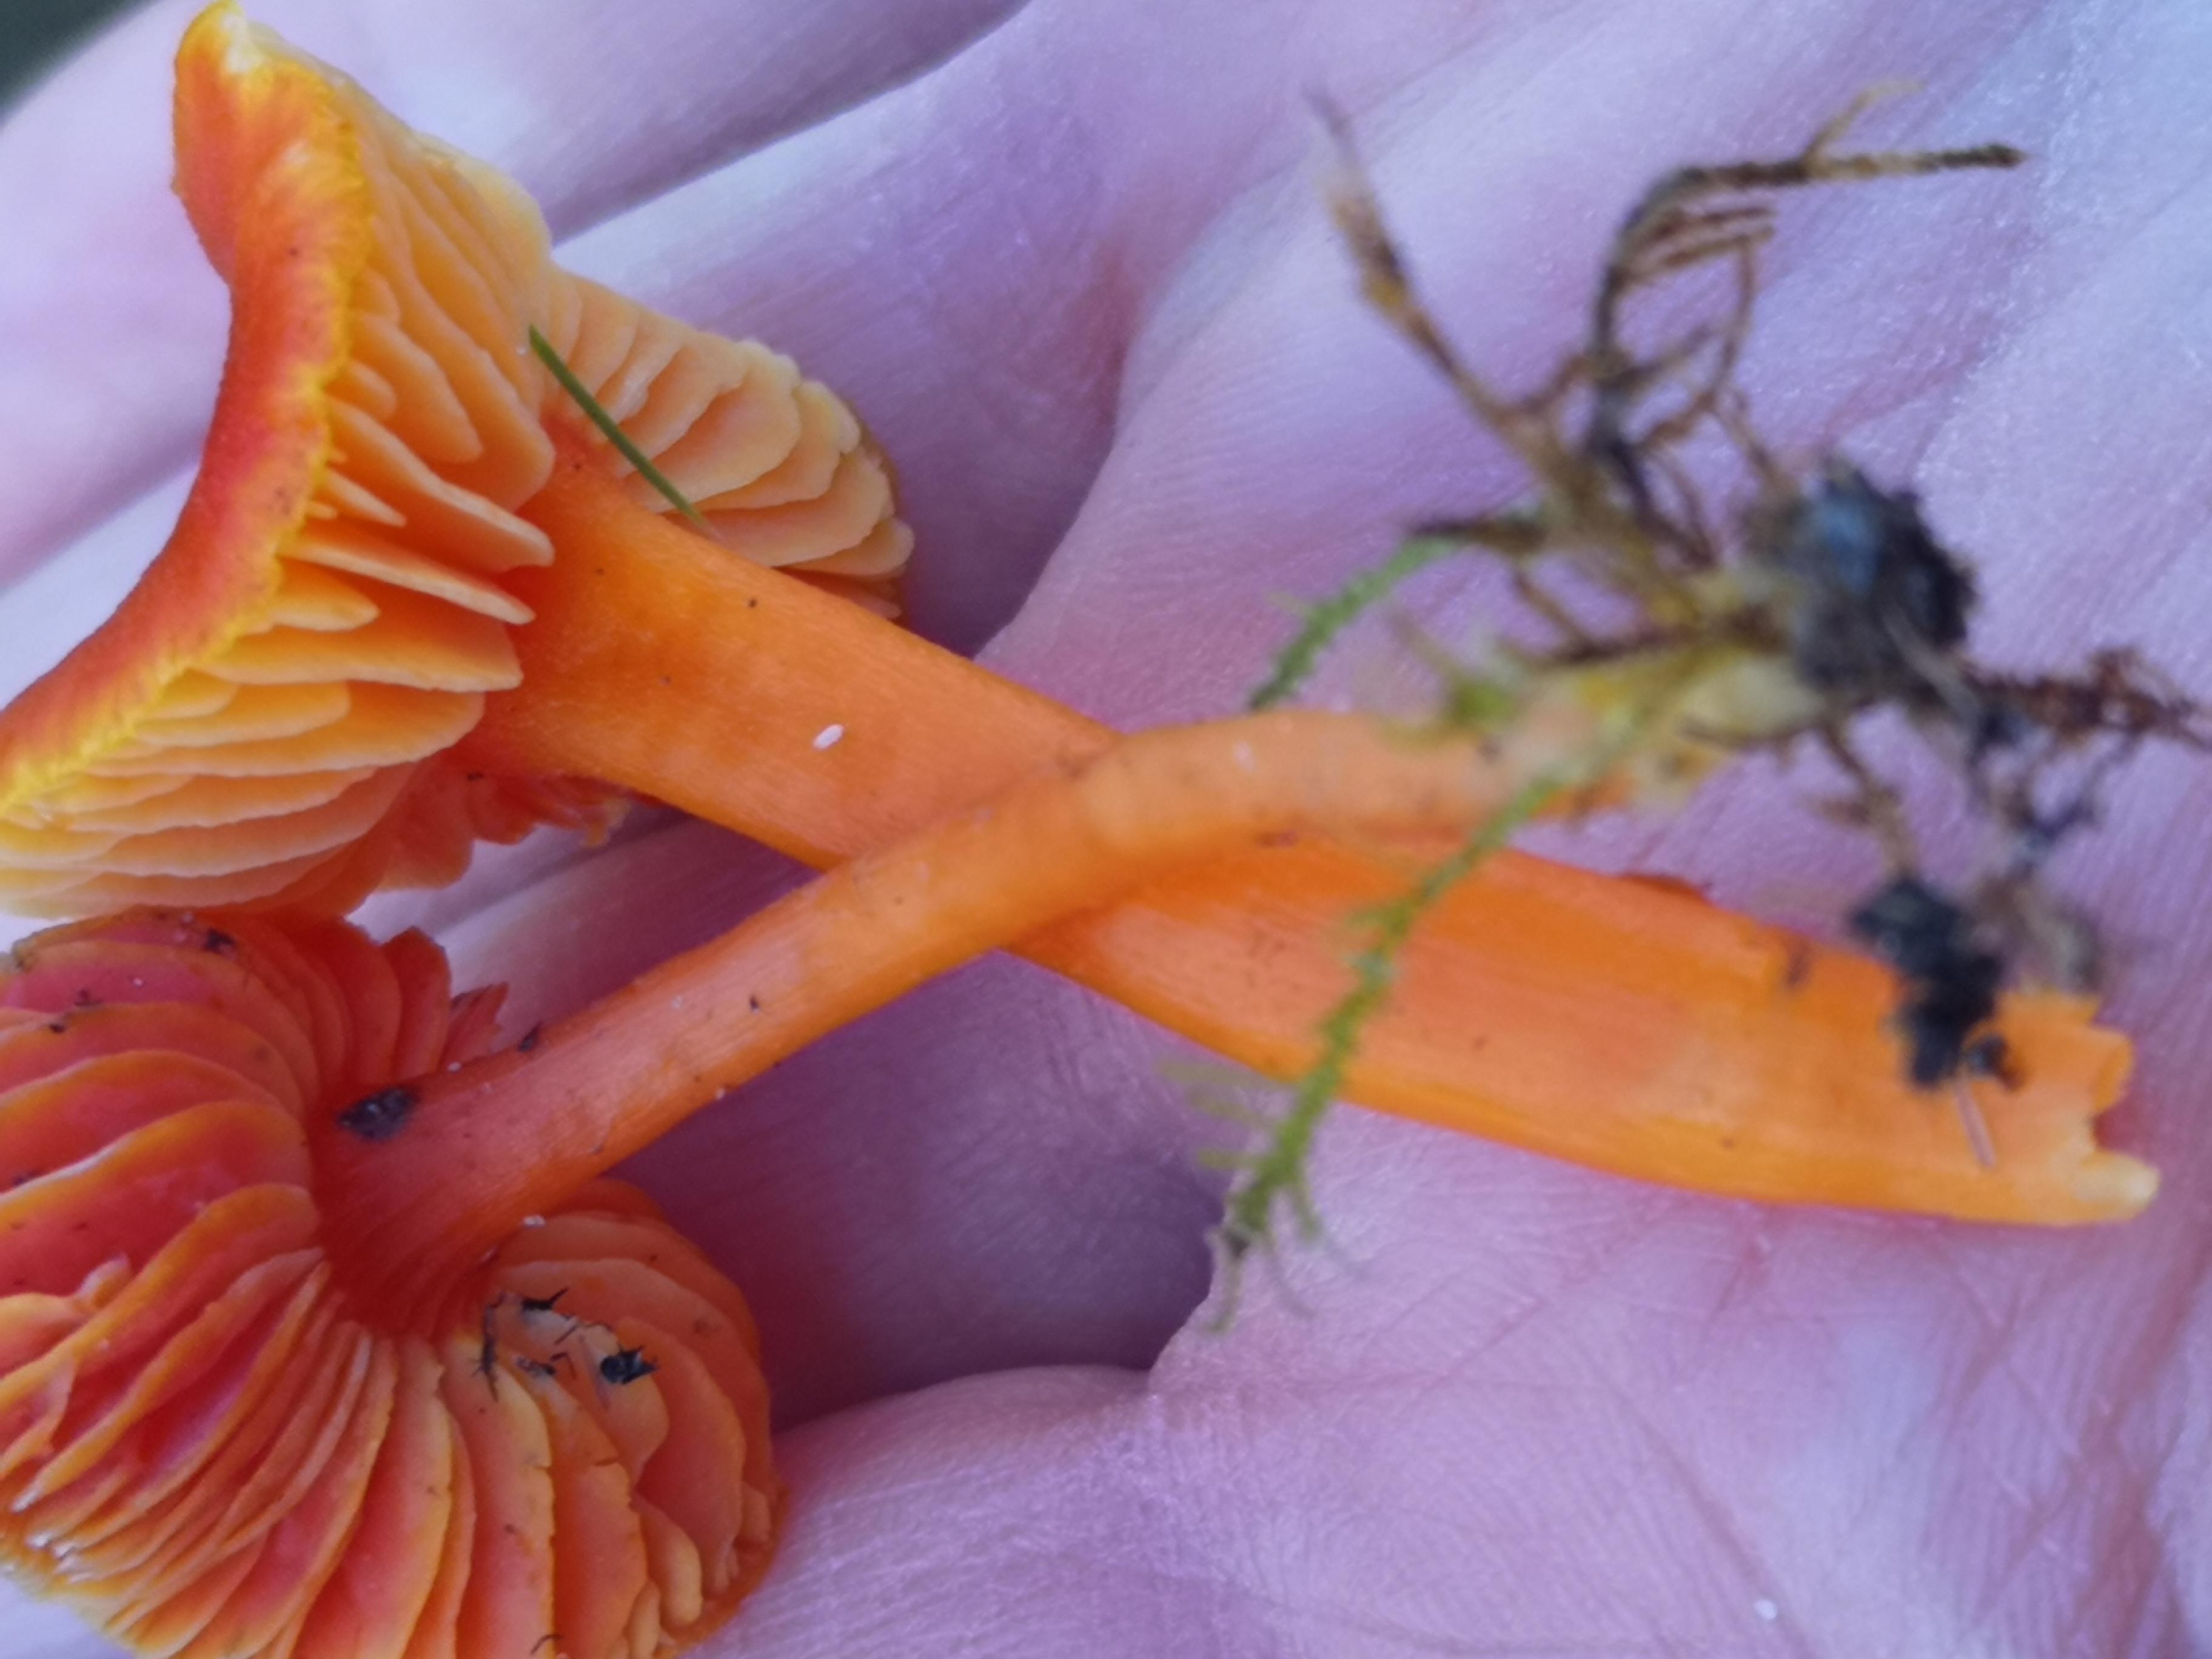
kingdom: Fungi
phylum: Basidiomycota
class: Agaricomycetes
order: Agaricales
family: Hygrophoraceae
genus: Hygrocybe
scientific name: Hygrocybe miniata
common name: mønje-vokshat
